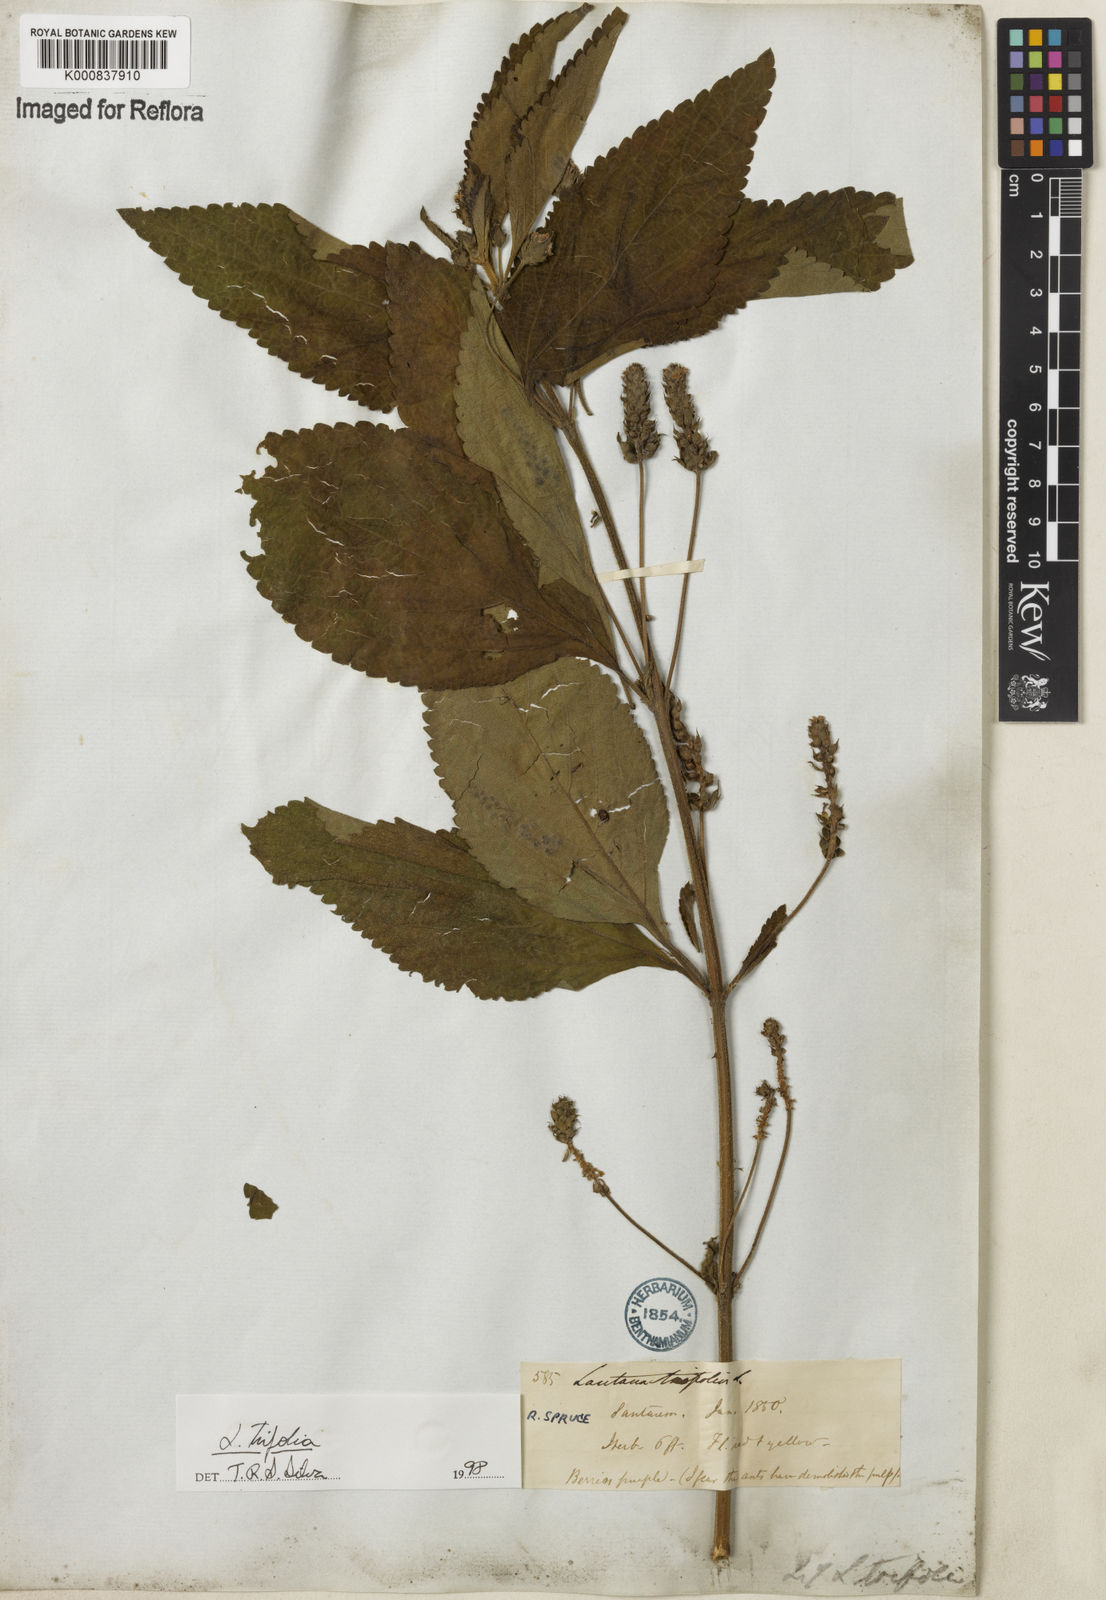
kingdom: Plantae
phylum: Tracheophyta
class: Magnoliopsida
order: Lamiales
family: Verbenaceae
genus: Lantana
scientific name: Lantana trifolia
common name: Sweet-sage
